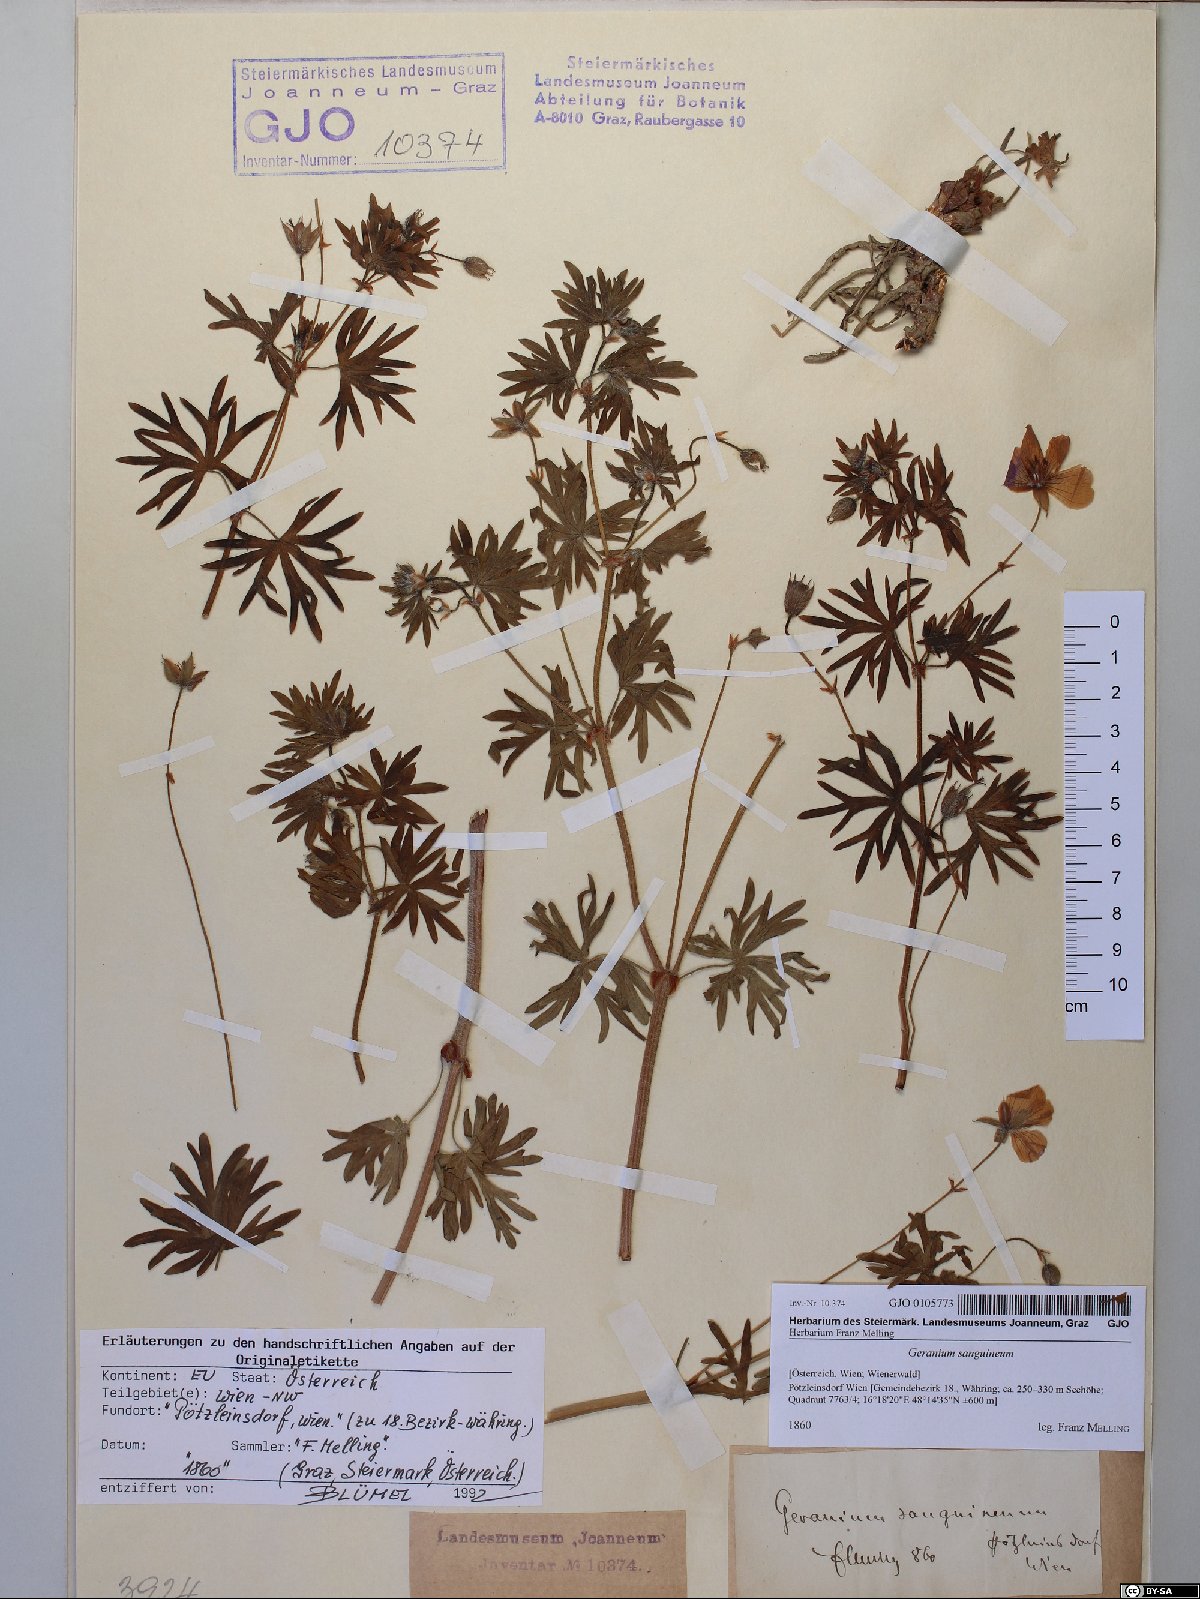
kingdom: Plantae
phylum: Tracheophyta
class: Magnoliopsida
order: Geraniales
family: Geraniaceae
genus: Geranium
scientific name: Geranium sanguineum
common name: Bloody crane's-bill
